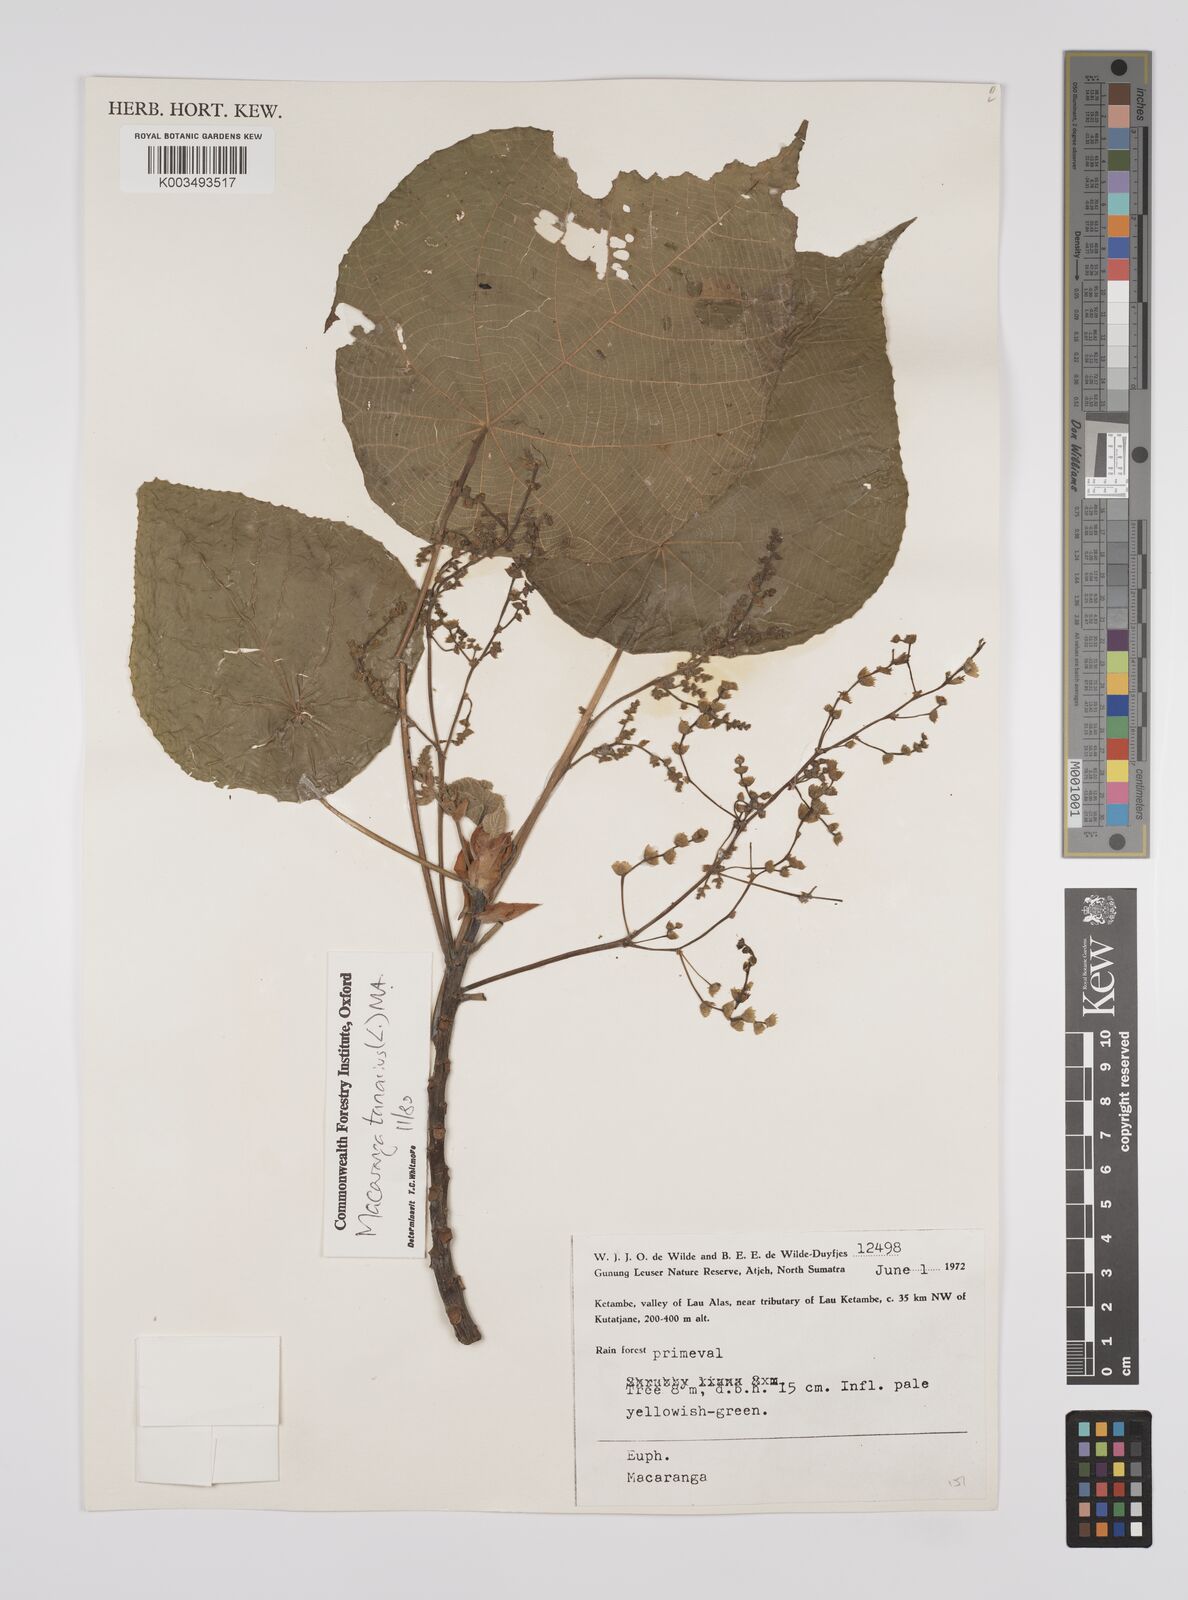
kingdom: Plantae
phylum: Tracheophyta
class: Magnoliopsida
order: Malpighiales
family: Euphorbiaceae
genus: Macaranga
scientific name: Macaranga tanarius
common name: Parasol leaf tree
